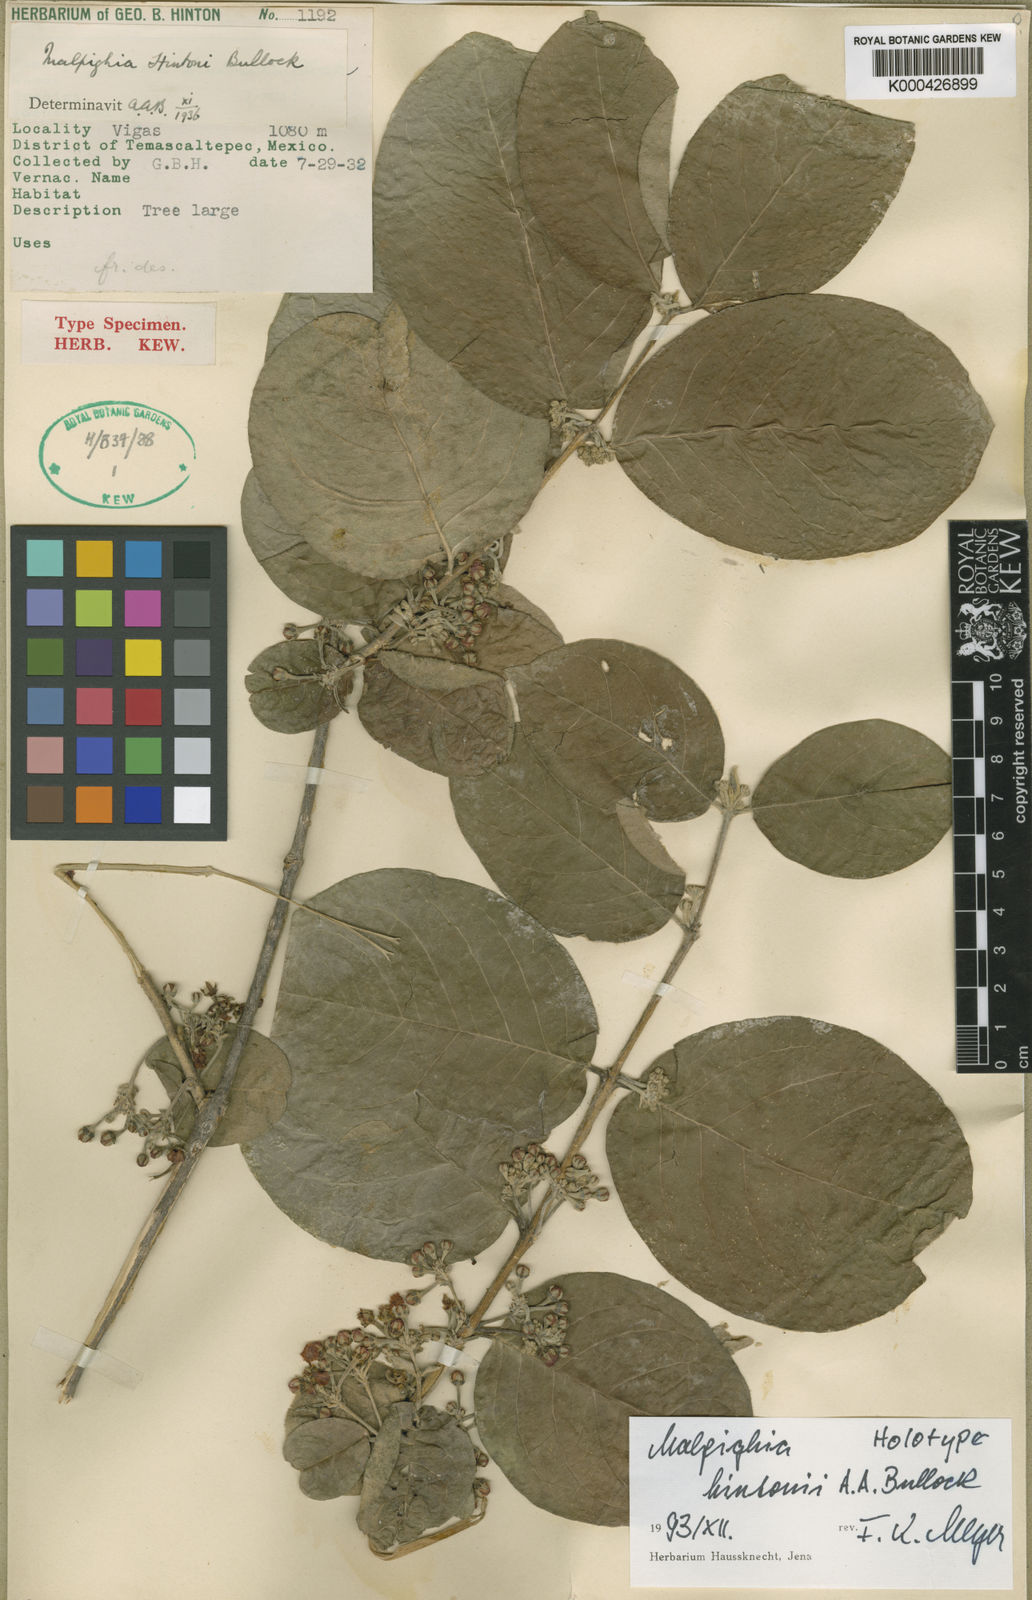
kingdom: Plantae
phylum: Tracheophyta
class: Magnoliopsida
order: Malpighiales
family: Malpighiaceae
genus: Malpighia
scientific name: Malpighia hintonii
